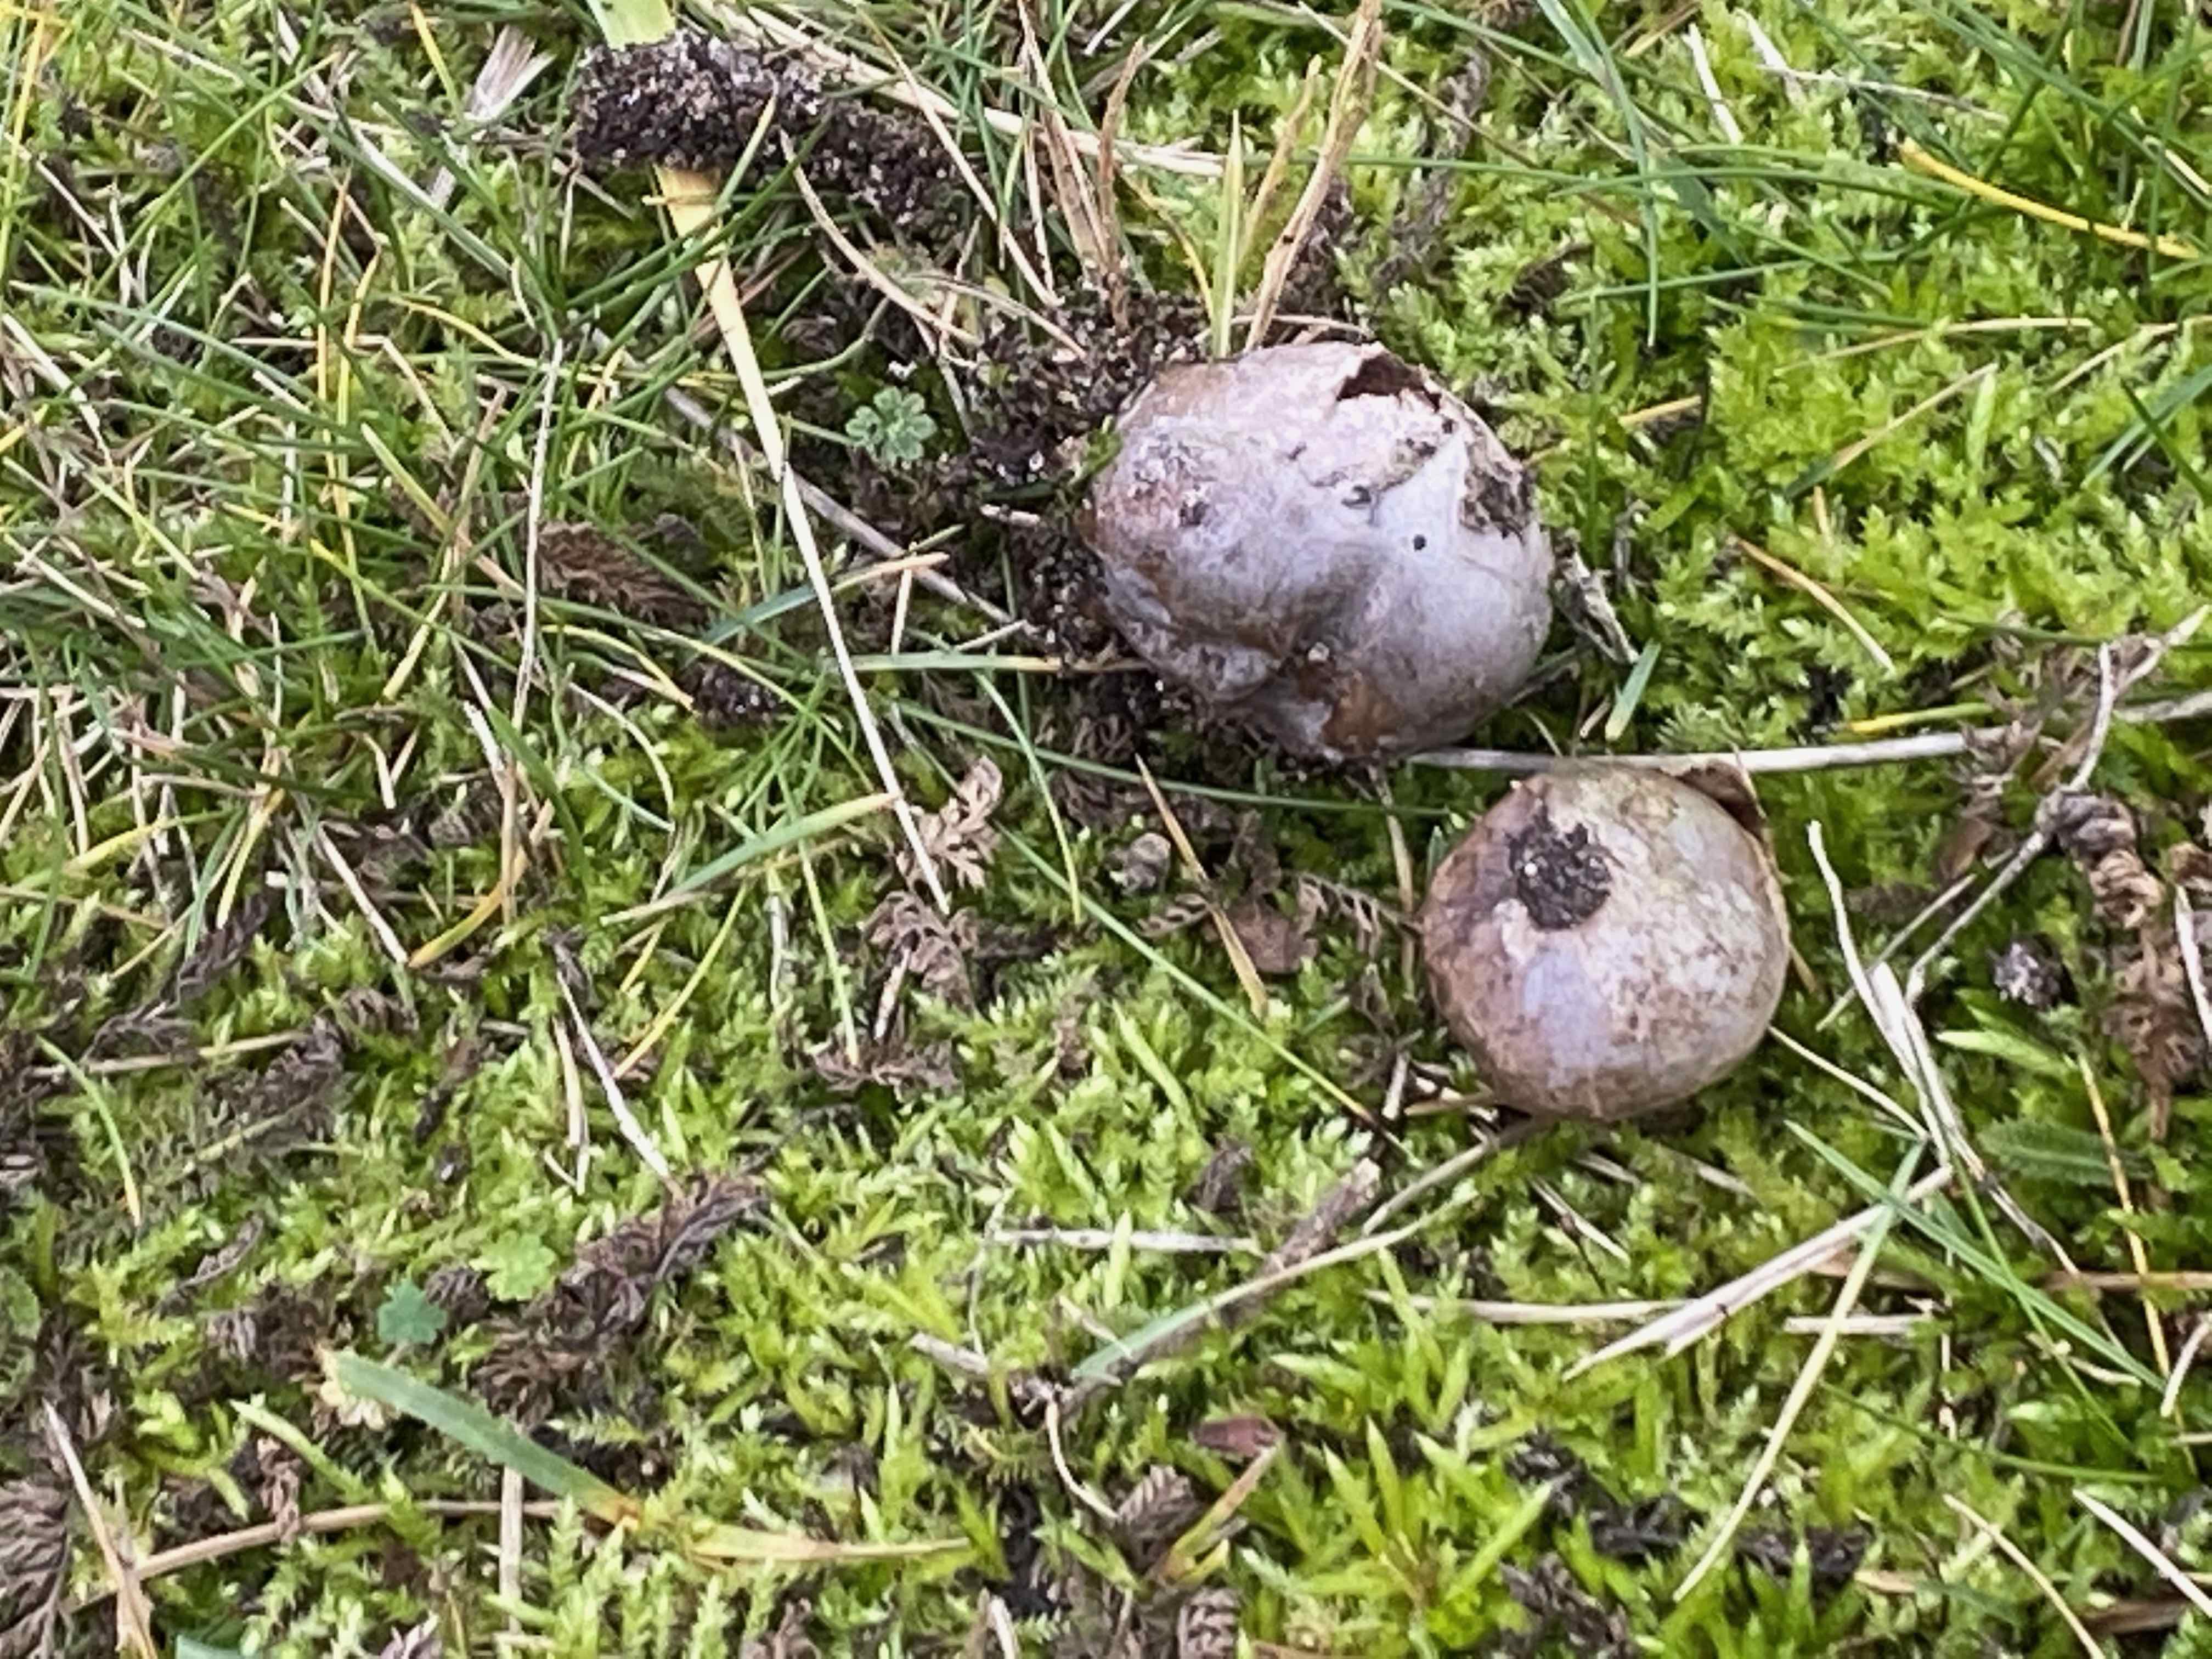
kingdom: Fungi
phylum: Basidiomycota
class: Agaricomycetes
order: Agaricales
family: Lycoperdaceae
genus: Bovista
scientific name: Bovista plumbea
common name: blygrå bovist
